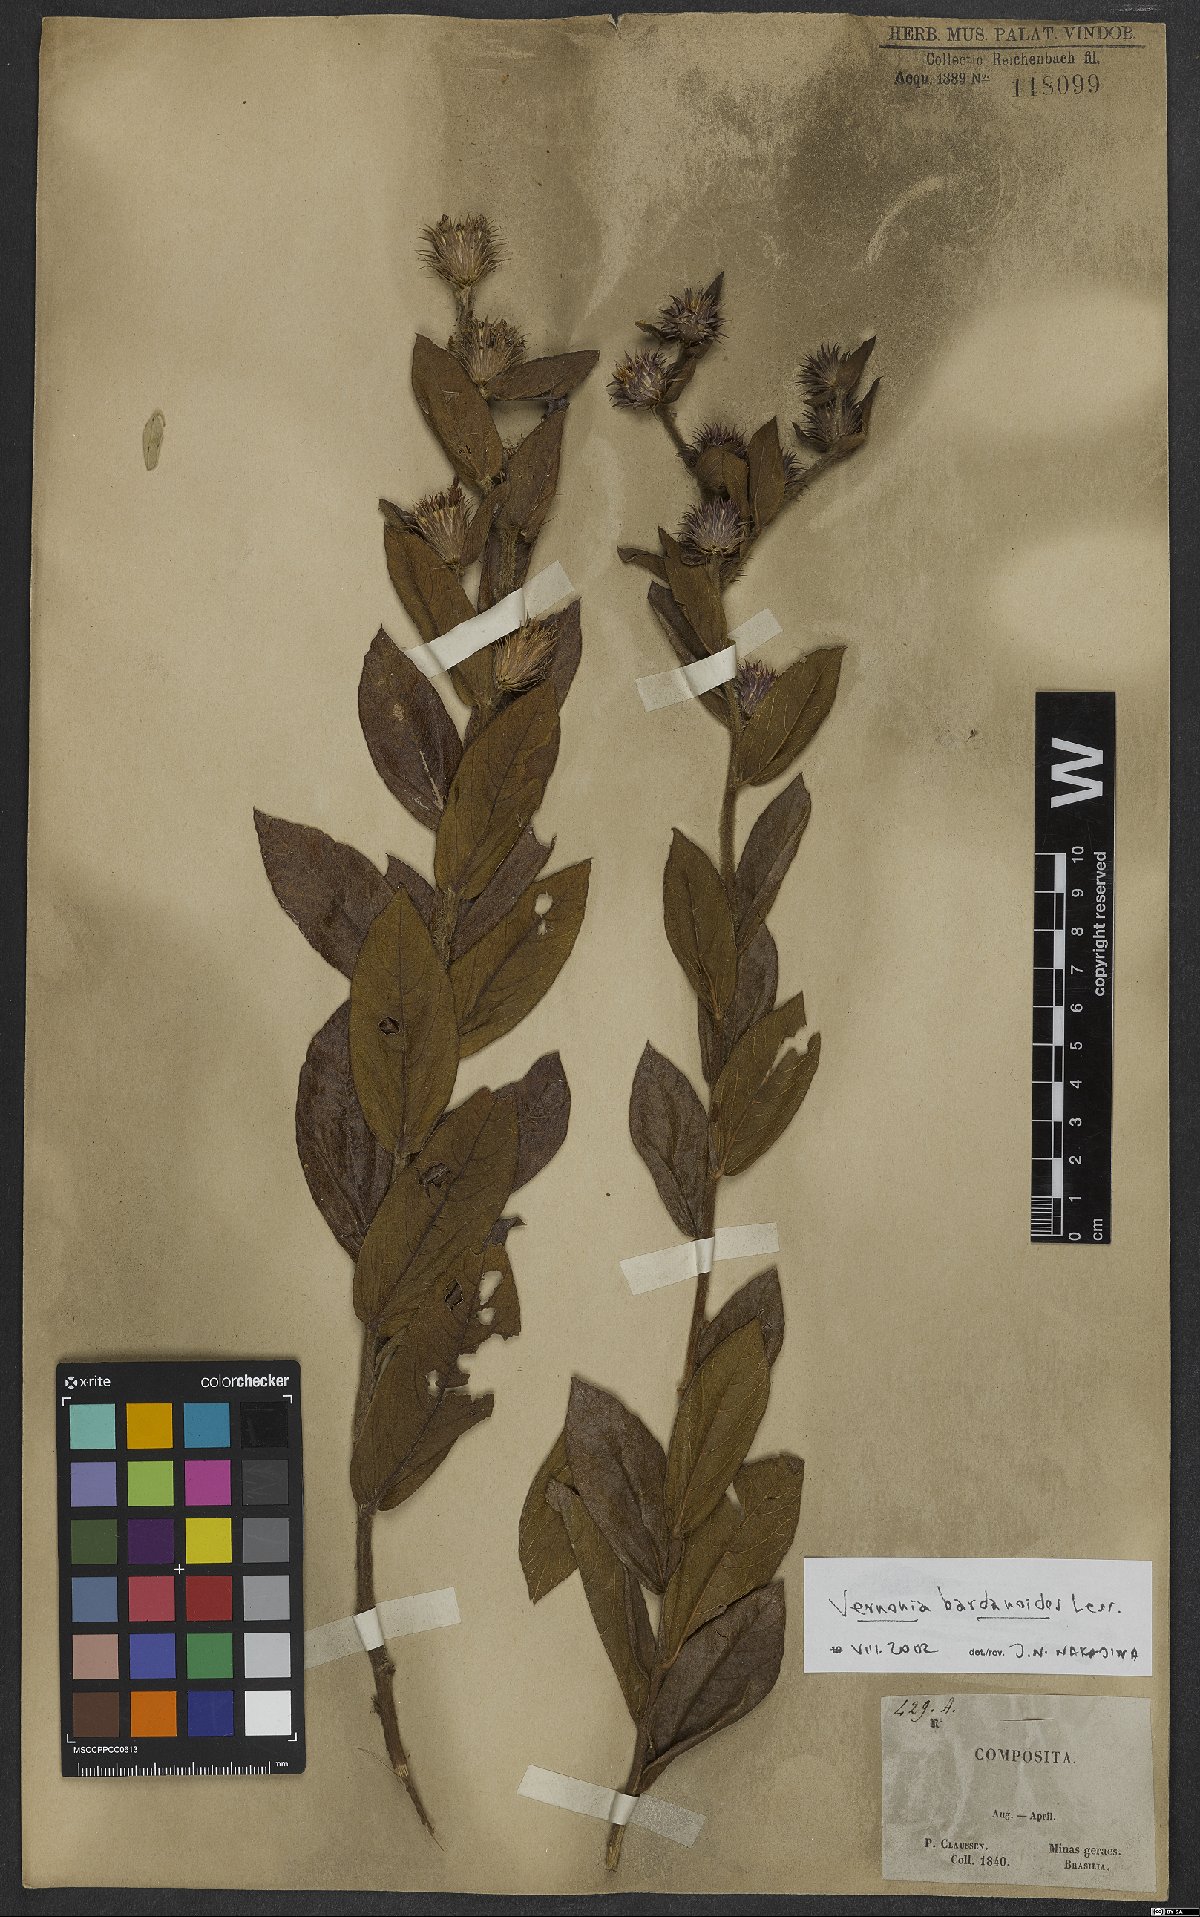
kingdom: Plantae
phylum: Tracheophyta
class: Magnoliopsida
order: Asterales
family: Asteraceae
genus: Lessingianthus
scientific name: Lessingianthus bardanioides
